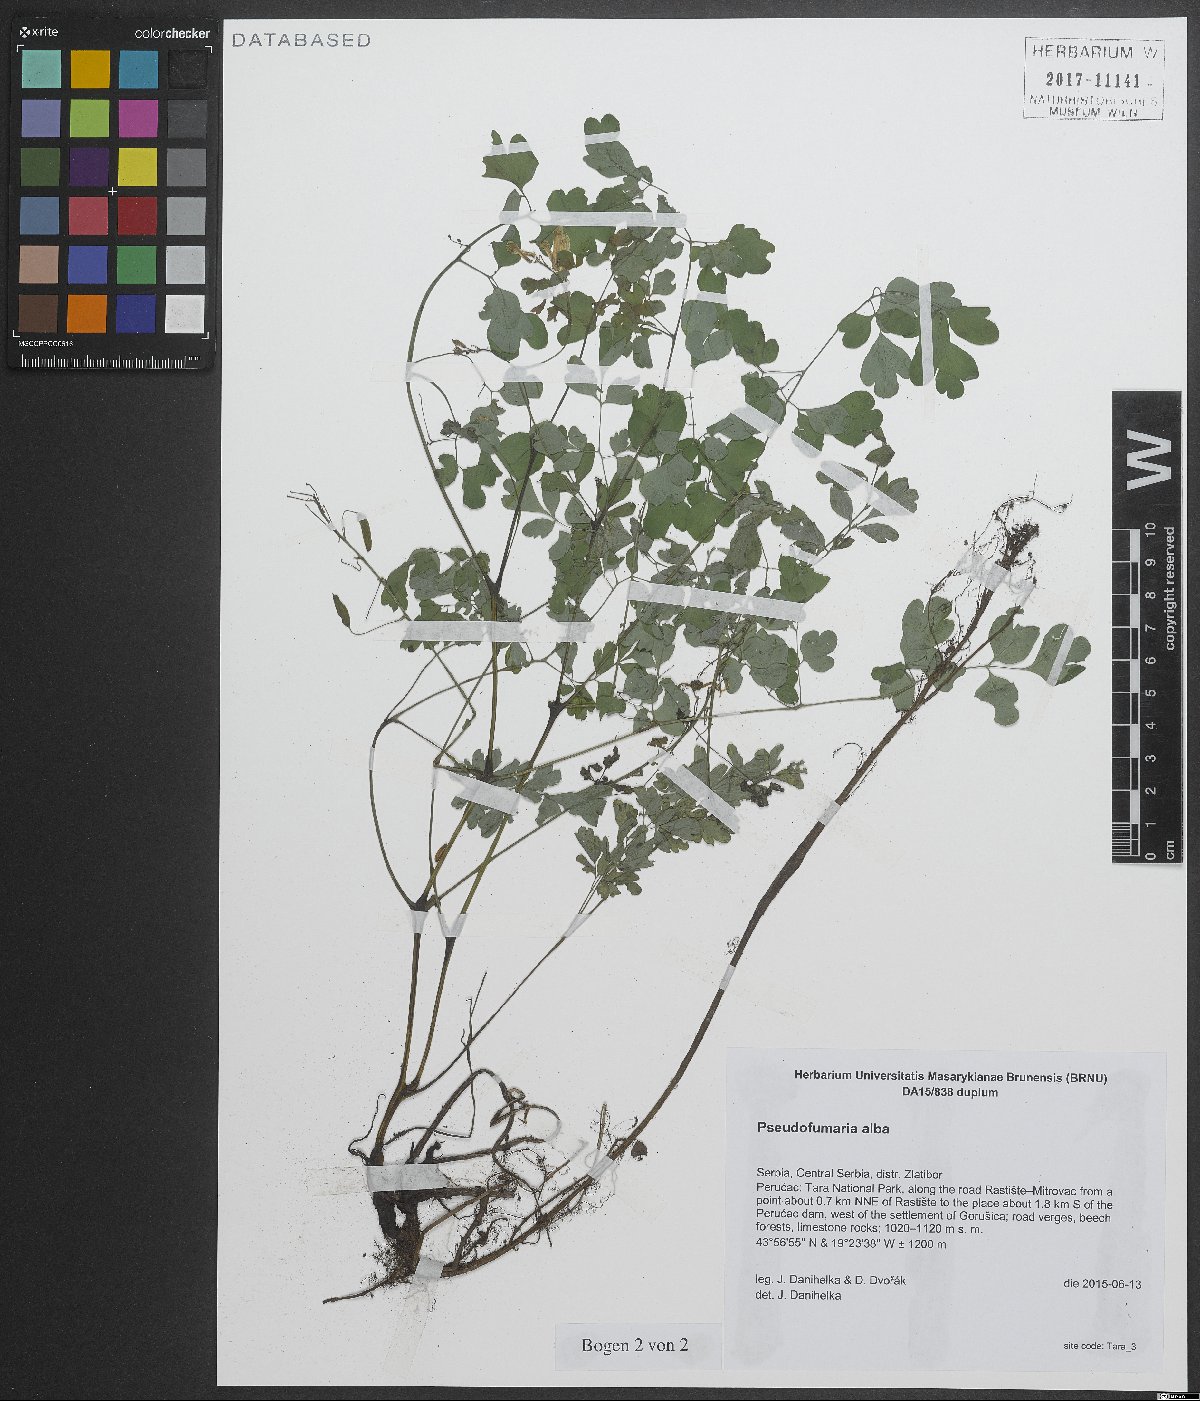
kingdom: Plantae
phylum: Tracheophyta
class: Magnoliopsida
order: Ranunculales
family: Papaveraceae
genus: Pseudofumaria
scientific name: Pseudofumaria alba
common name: Pale corydalis
